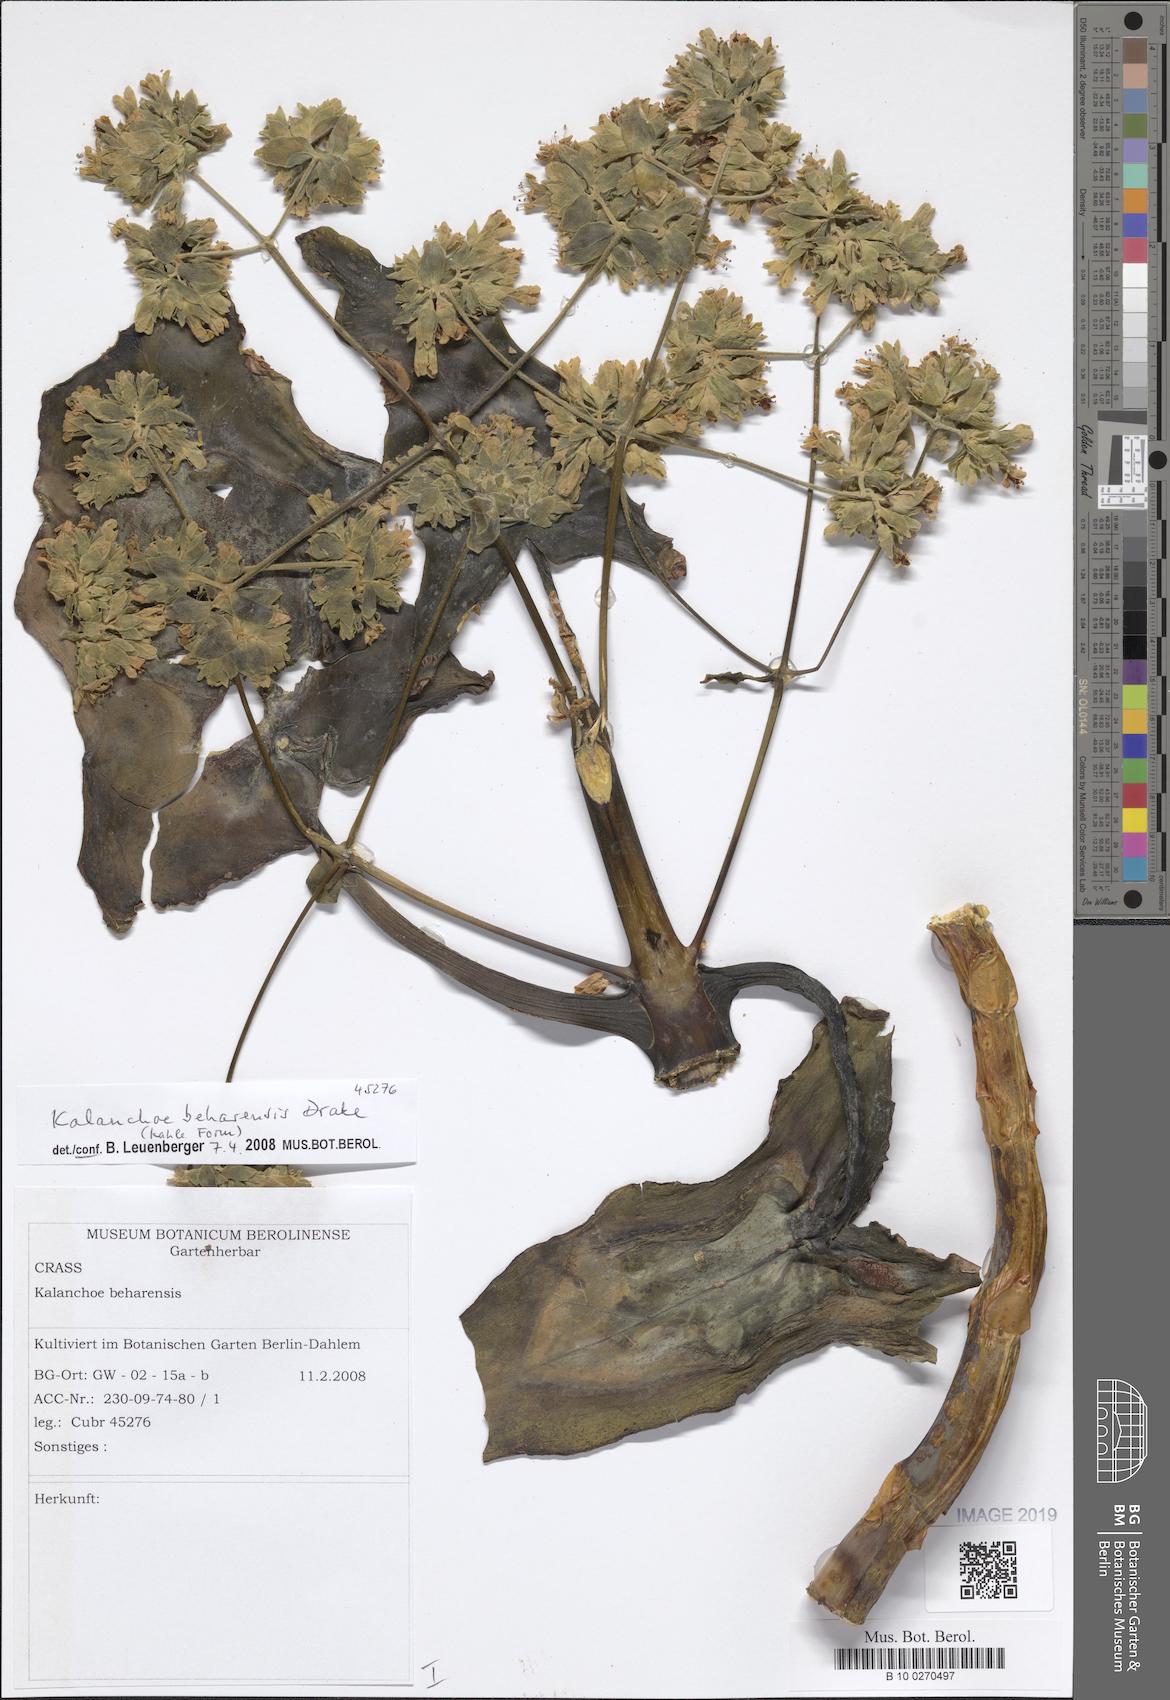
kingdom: Plantae
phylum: Tracheophyta
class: Magnoliopsida
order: Saxifragales
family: Crassulaceae
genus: Kalanchoe
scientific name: Kalanchoe beharensis
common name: Velvet leaf
